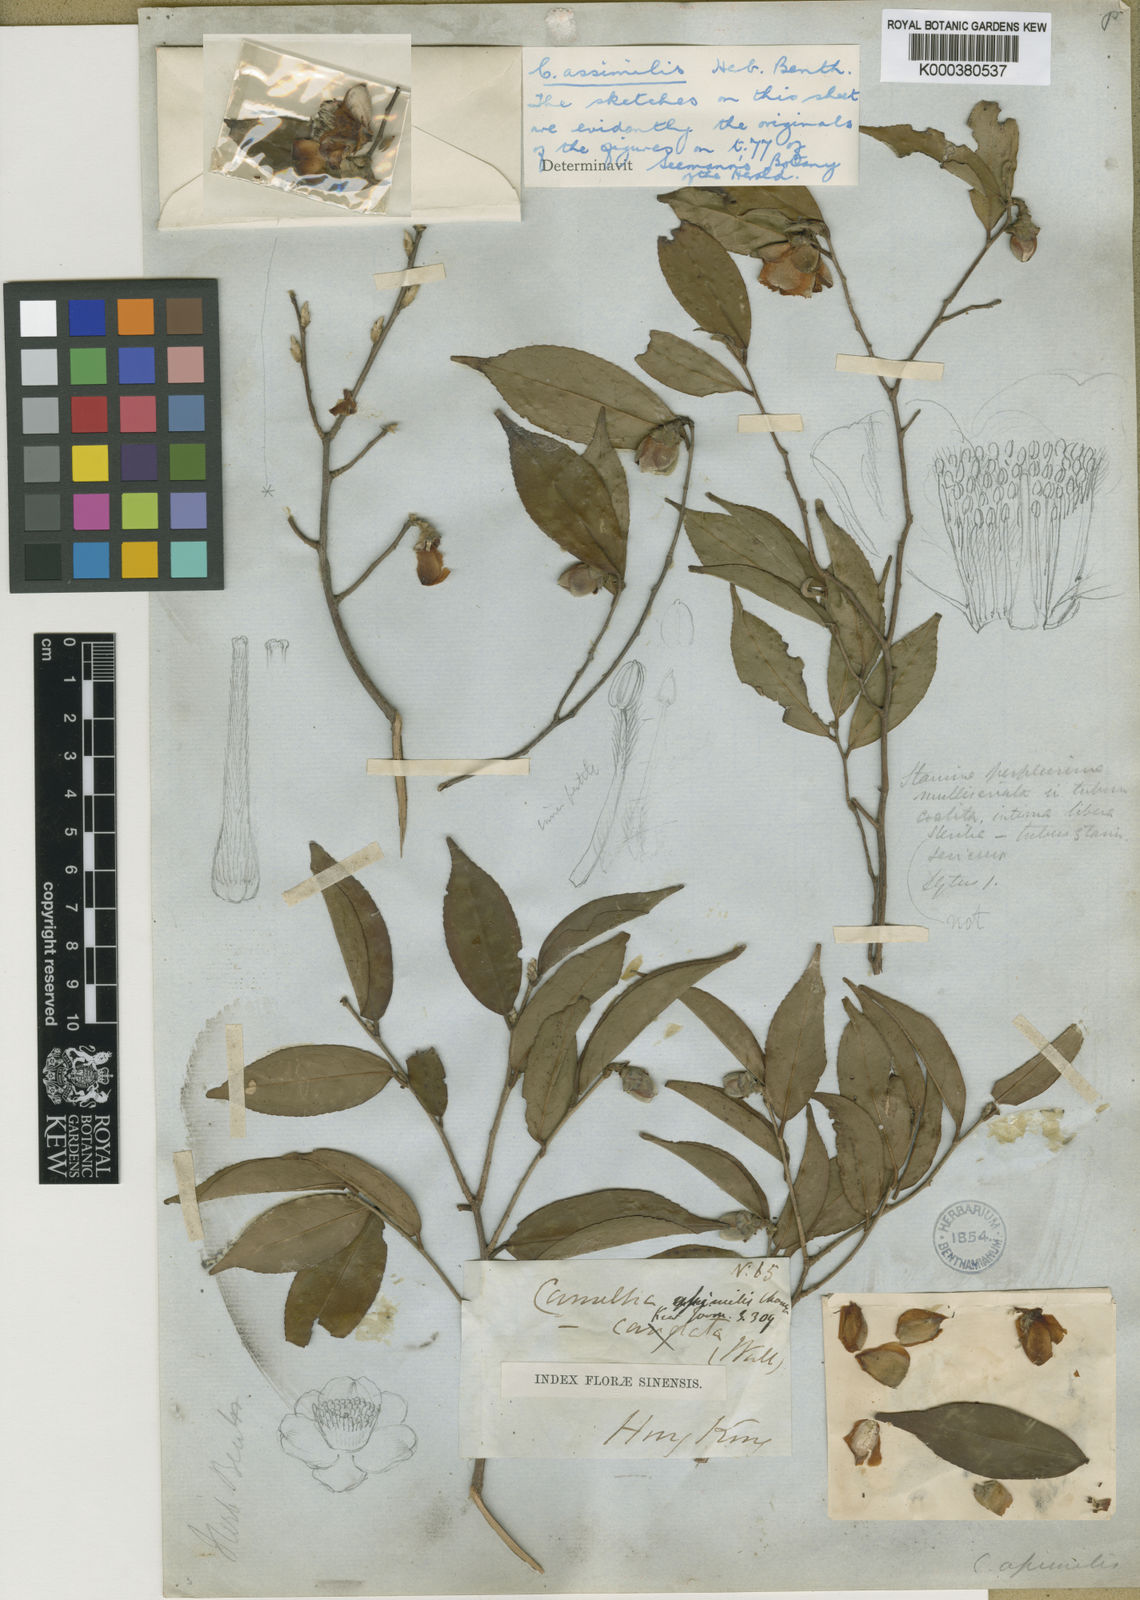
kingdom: Plantae
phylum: Tracheophyta
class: Magnoliopsida
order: Ericales
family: Theaceae
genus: Camellia
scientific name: Camellia
